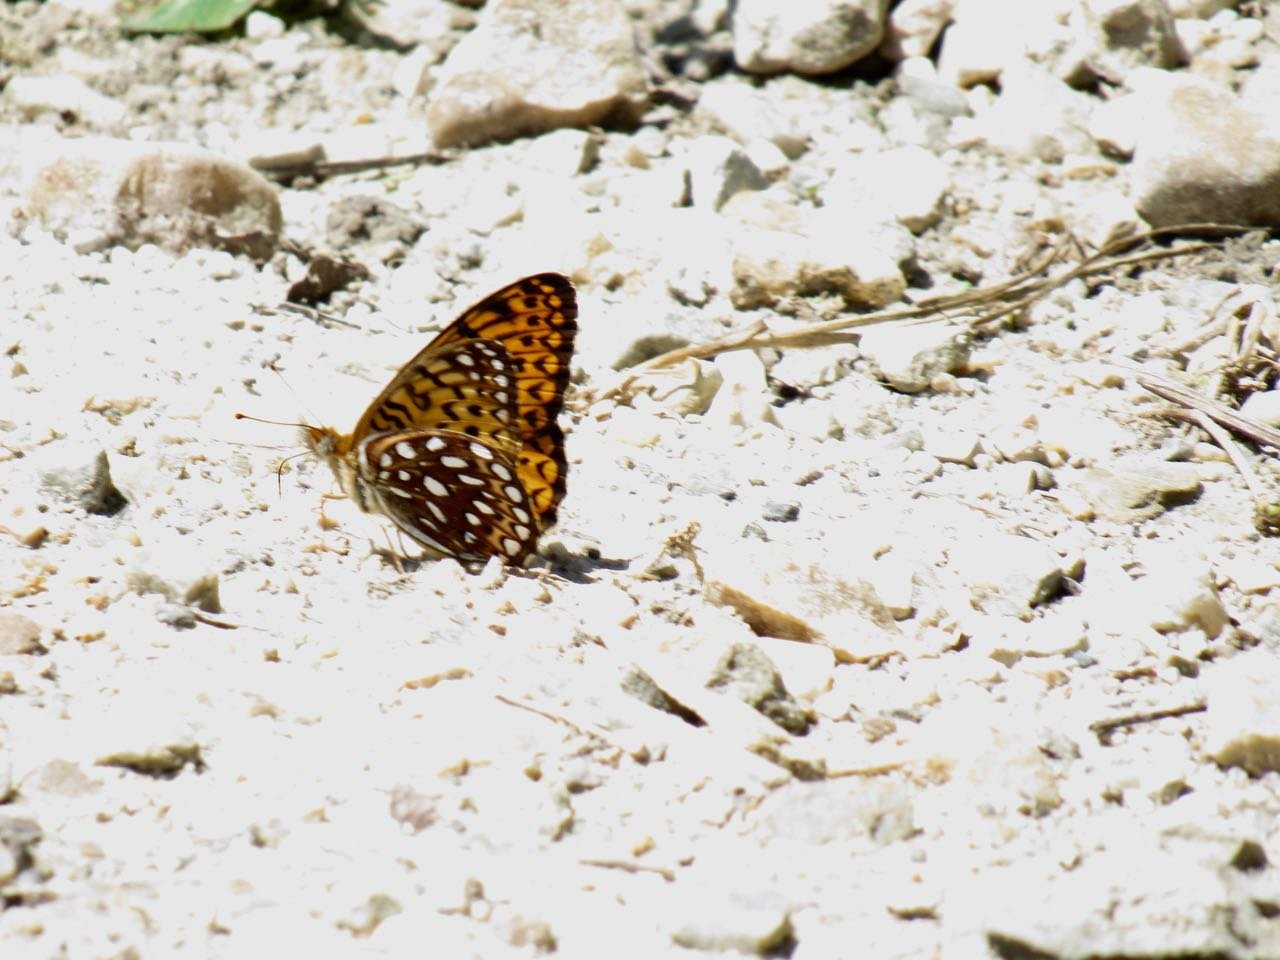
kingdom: Animalia
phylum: Arthropoda
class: Insecta
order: Lepidoptera
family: Nymphalidae
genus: Speyeria
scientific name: Speyeria atlantis
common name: Atlantis Fritillary
